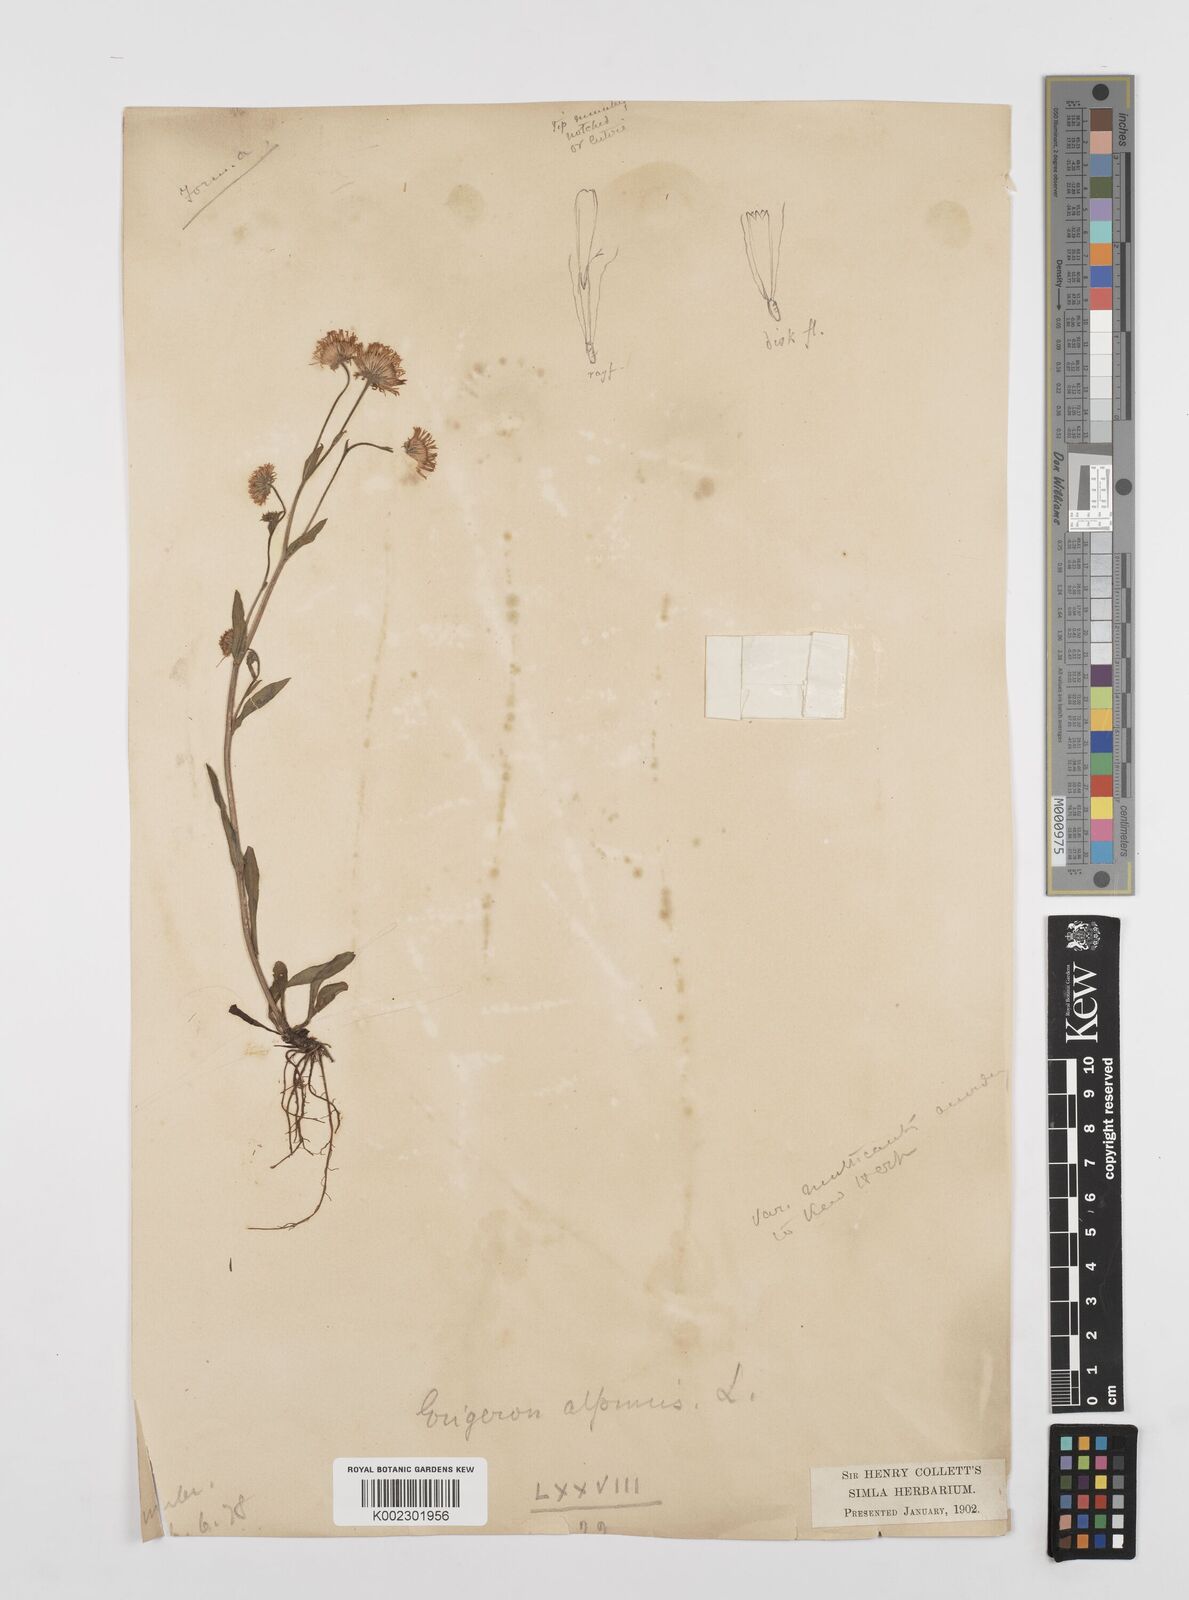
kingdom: Plantae
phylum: Tracheophyta
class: Magnoliopsida
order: Asterales
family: Asteraceae
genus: Erigeron
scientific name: Erigeron alpinus
